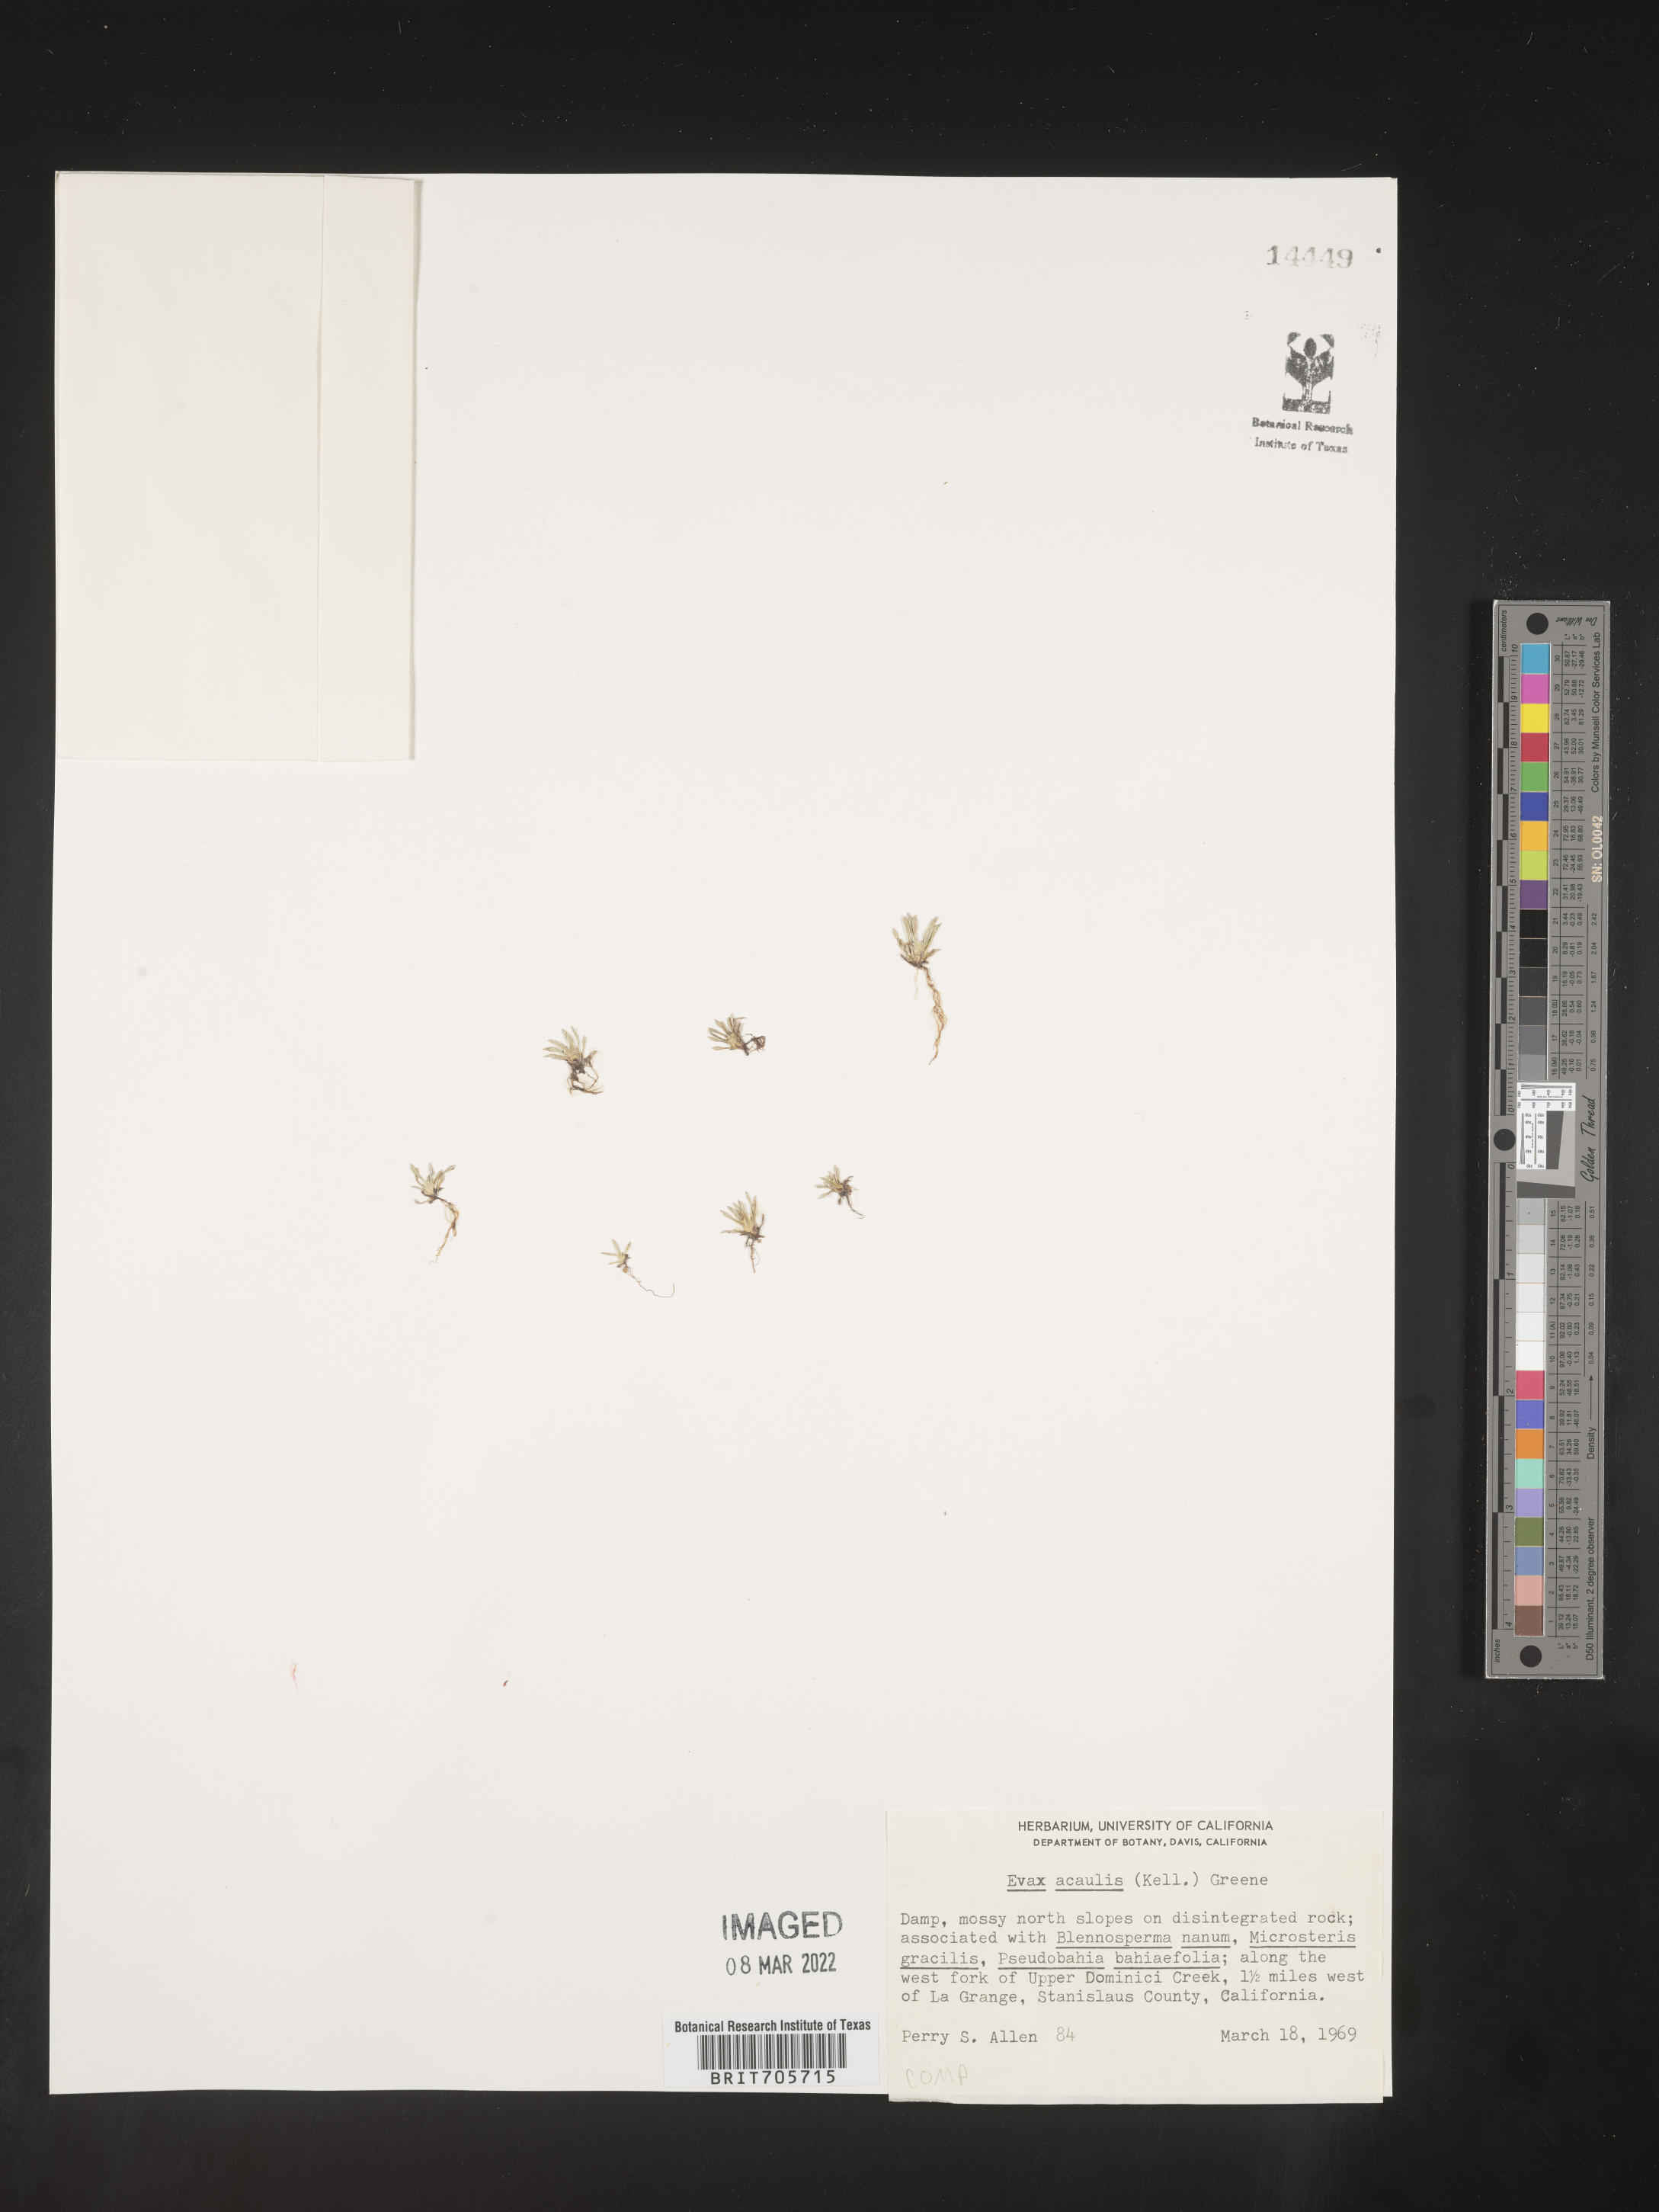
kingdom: Plantae
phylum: Tracheophyta
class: Magnoliopsida
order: Asterales
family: Asteraceae
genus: Hesperevax
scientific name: Hesperevax acaulis
